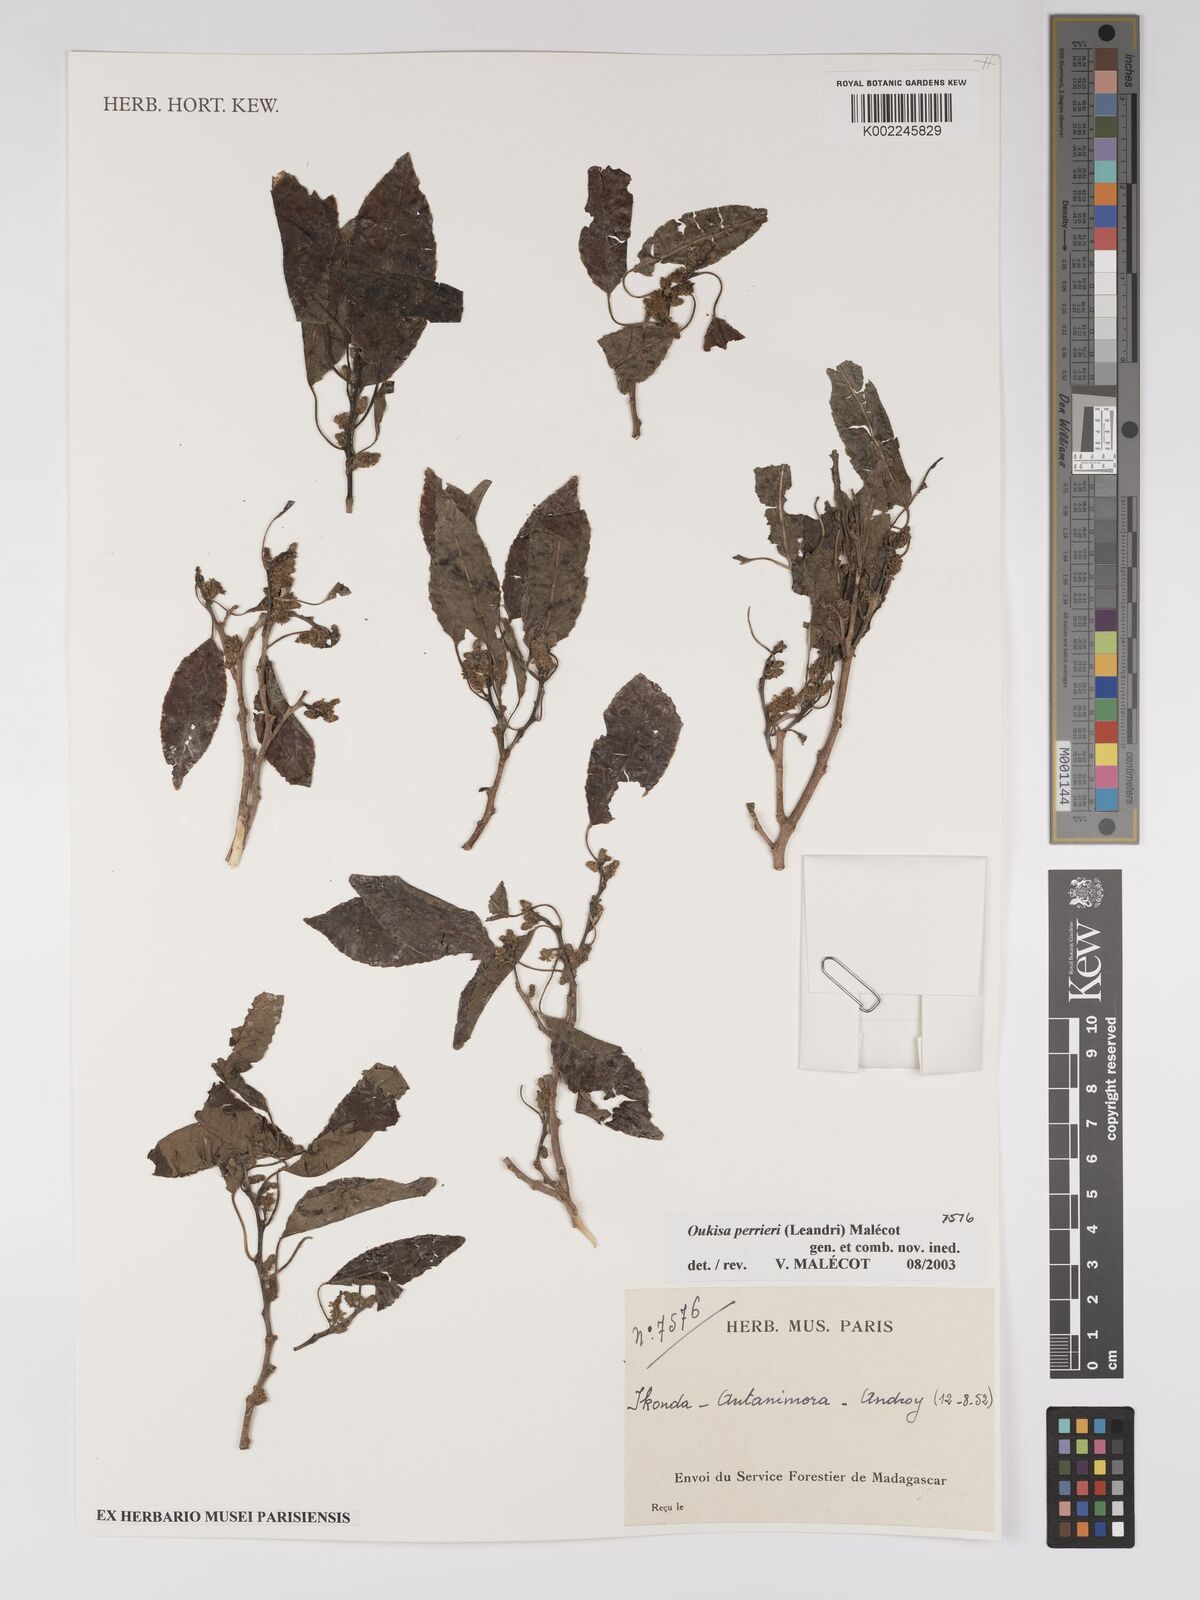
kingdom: Plantae
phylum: Tracheophyta
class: Magnoliopsida
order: Malpighiales
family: Euphorbiaceae
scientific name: Euphorbiaceae
